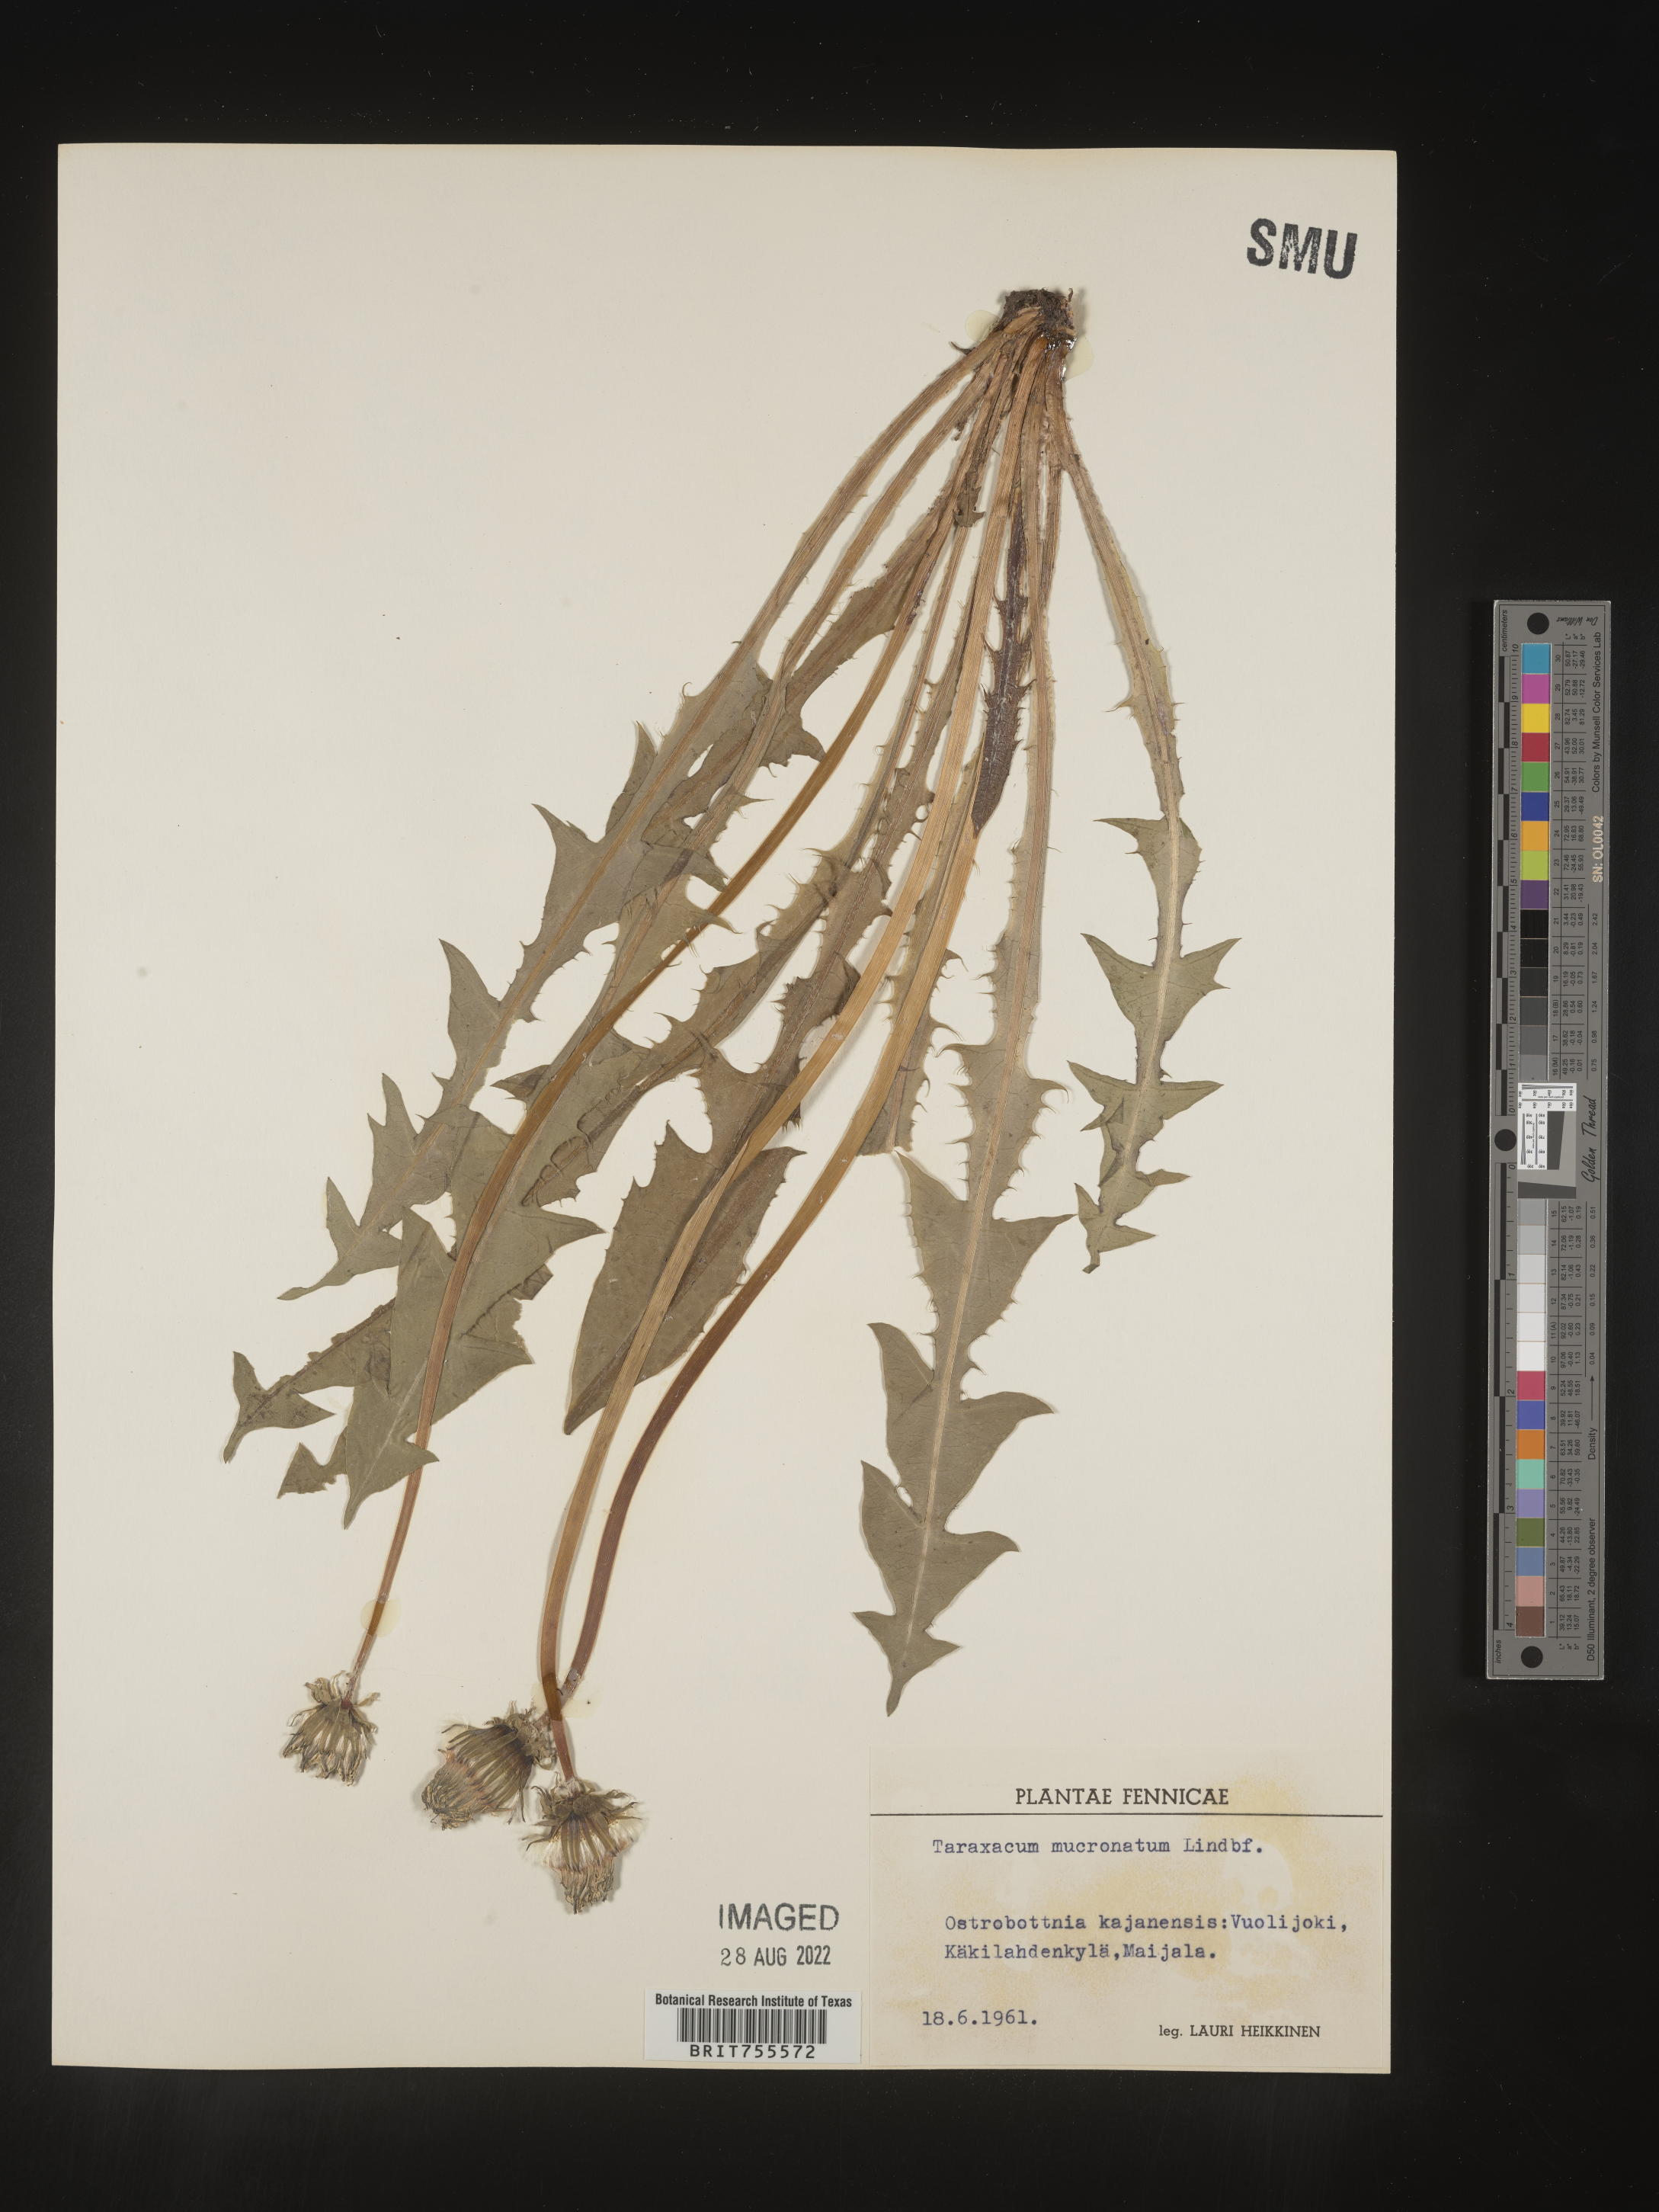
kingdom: Plantae
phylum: Tracheophyta
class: Magnoliopsida
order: Asterales
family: Asteraceae
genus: Taraxacum
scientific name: Taraxacum
